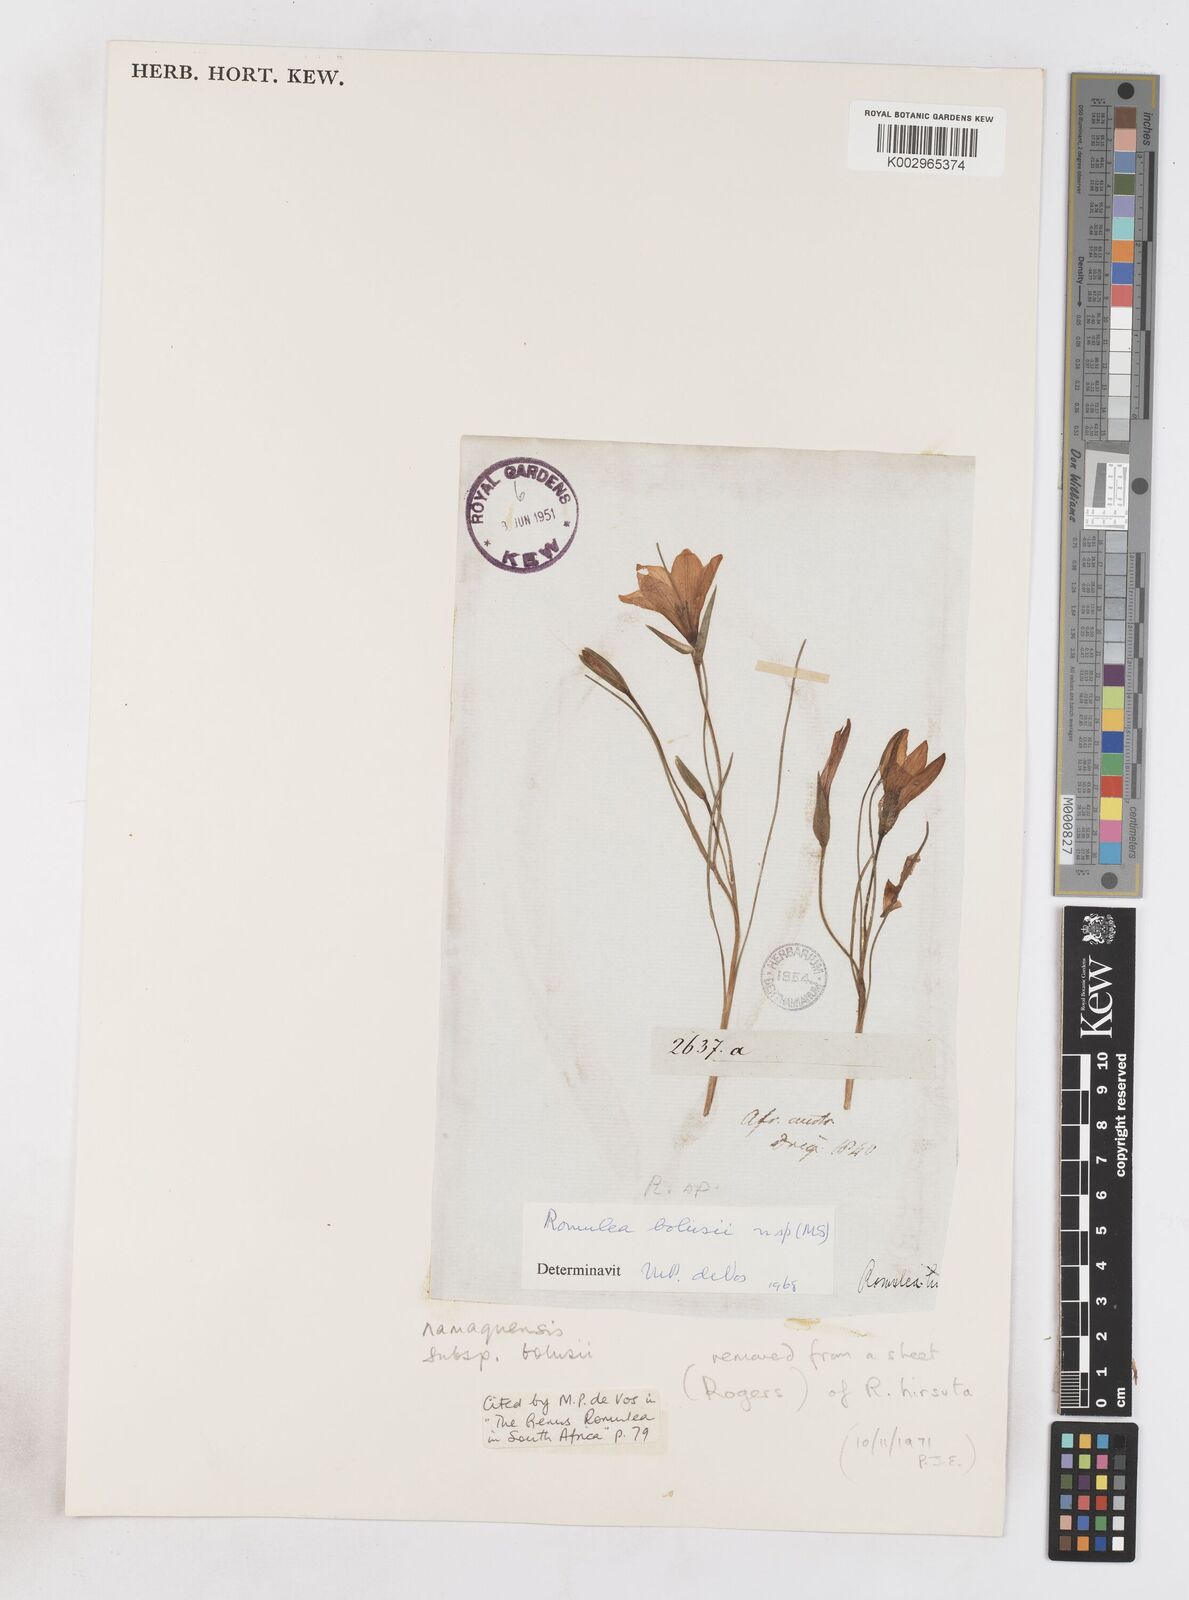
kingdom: Plantae
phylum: Tracheophyta
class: Liliopsida
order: Asparagales
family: Iridaceae
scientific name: Iridaceae
